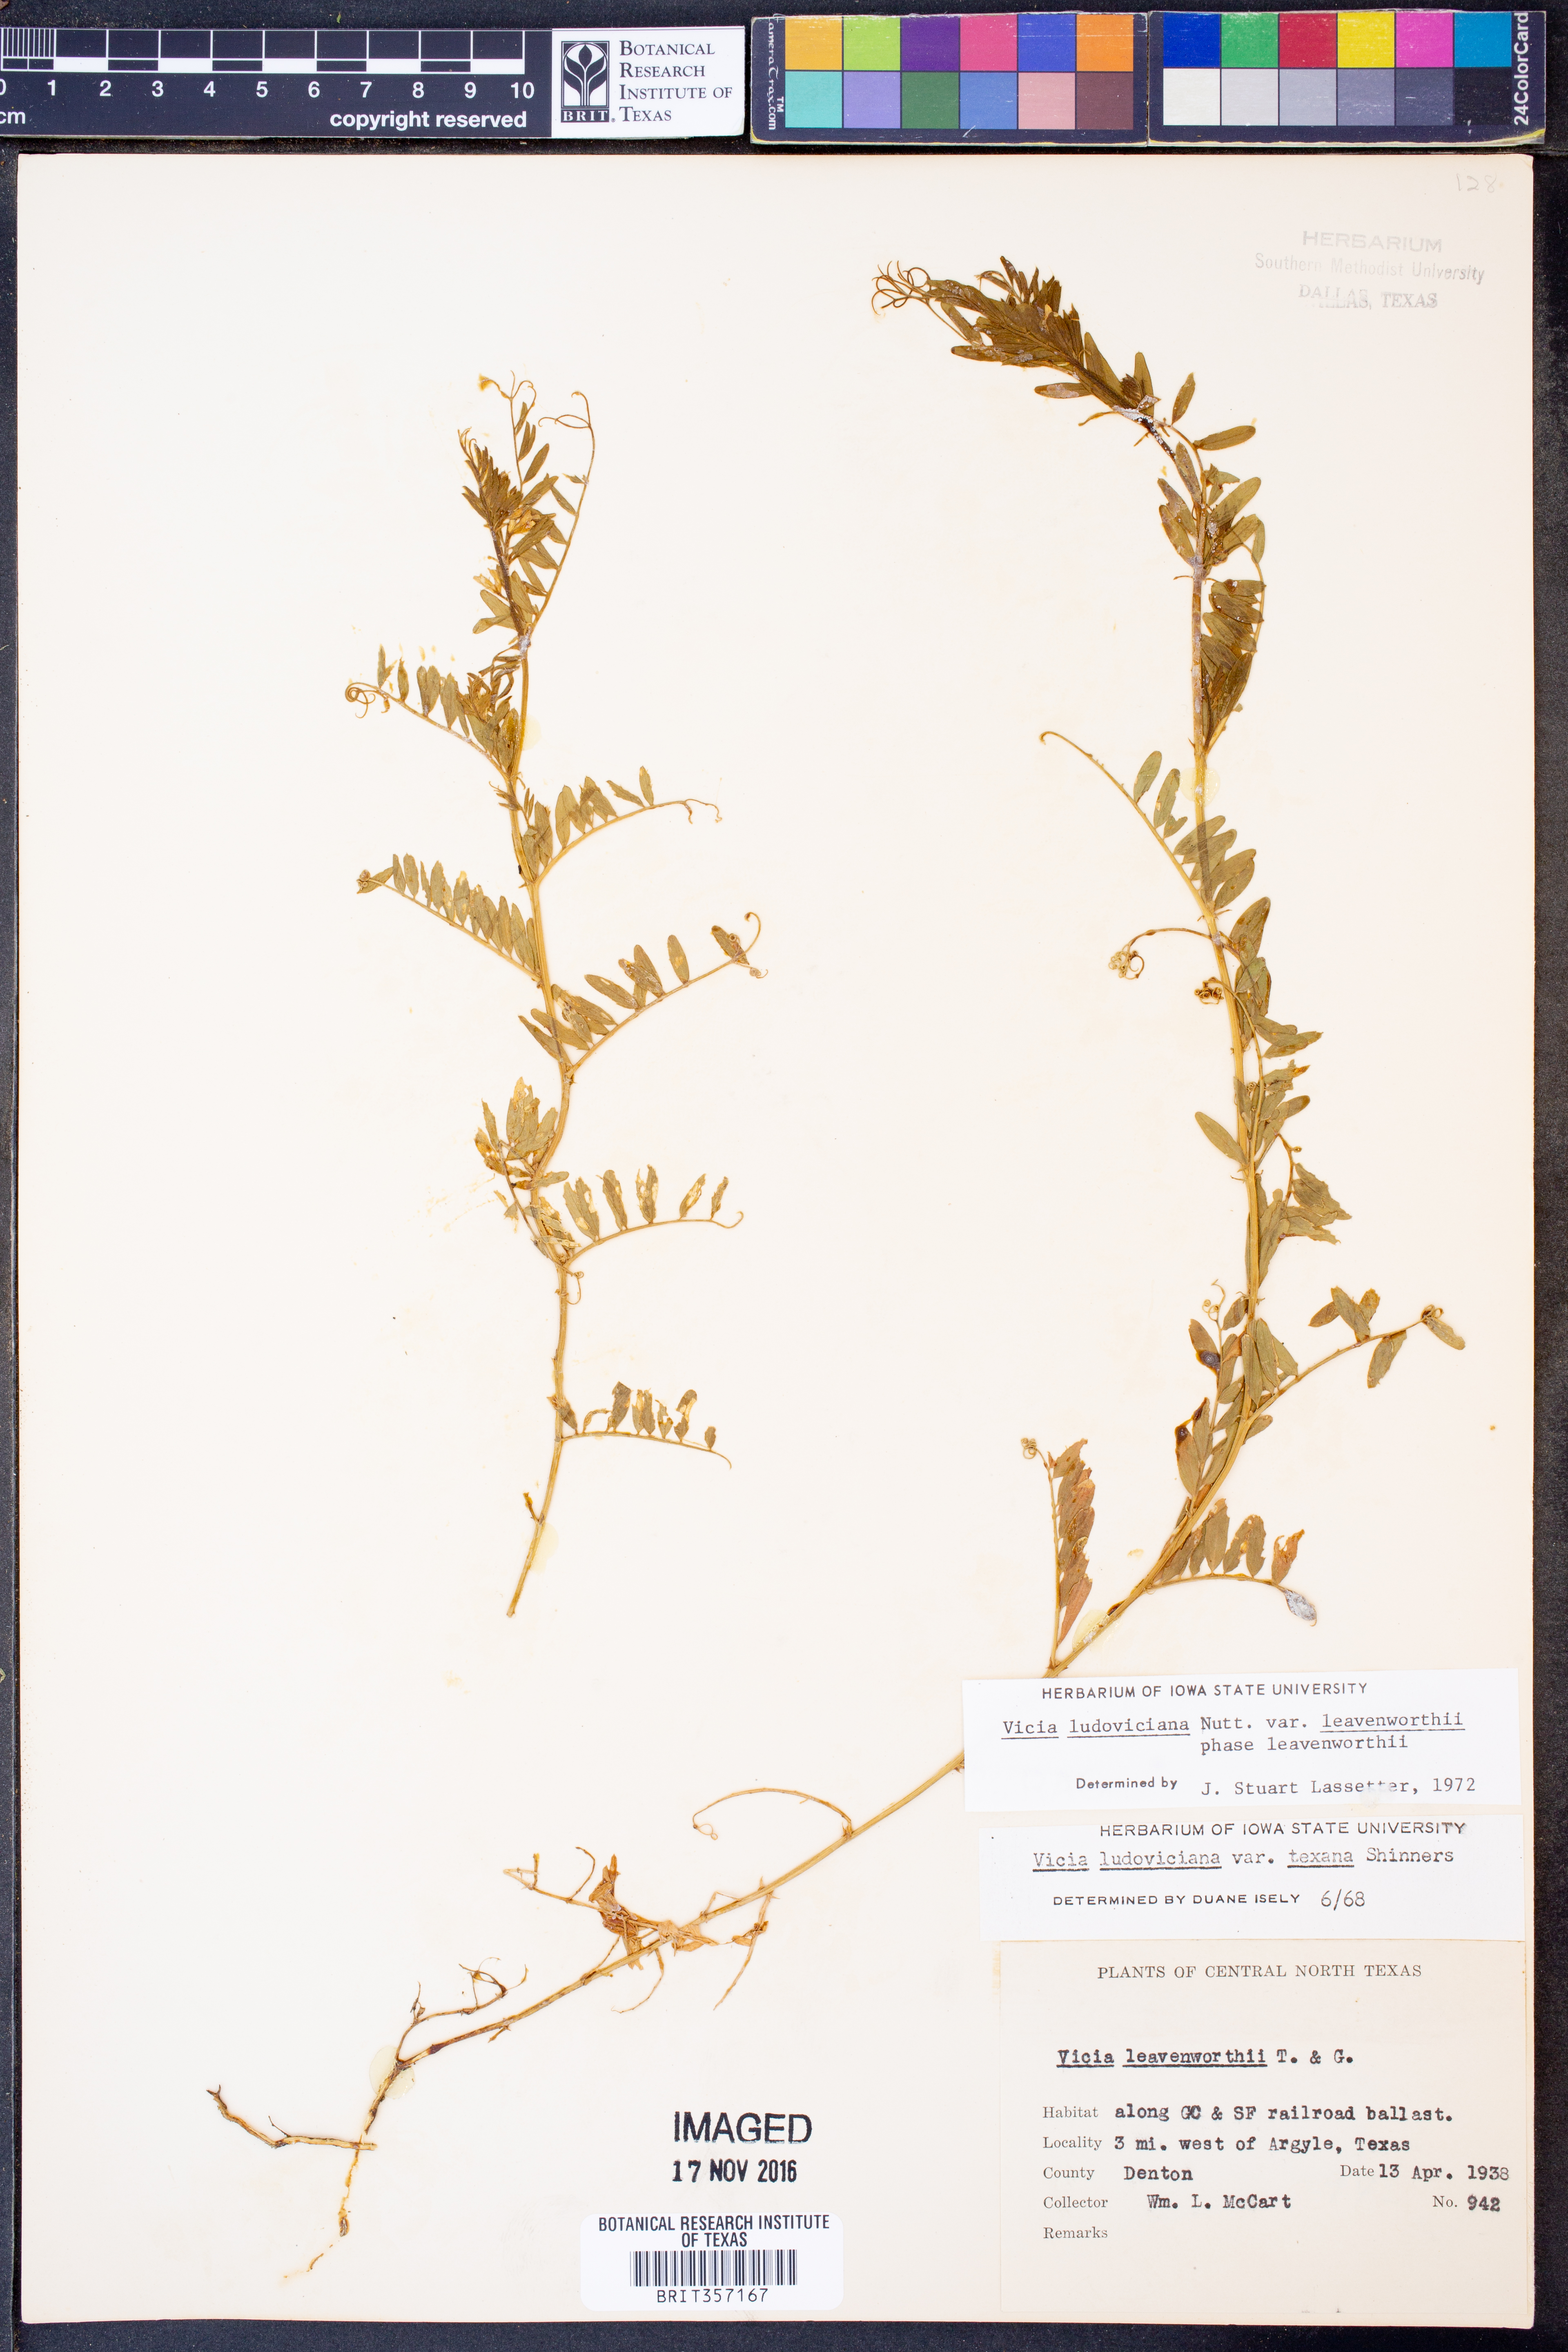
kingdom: Plantae
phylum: Tracheophyta
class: Magnoliopsida
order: Fabales
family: Fabaceae
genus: Vicia
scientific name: Vicia ludoviciana
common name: Louisiana vetch
